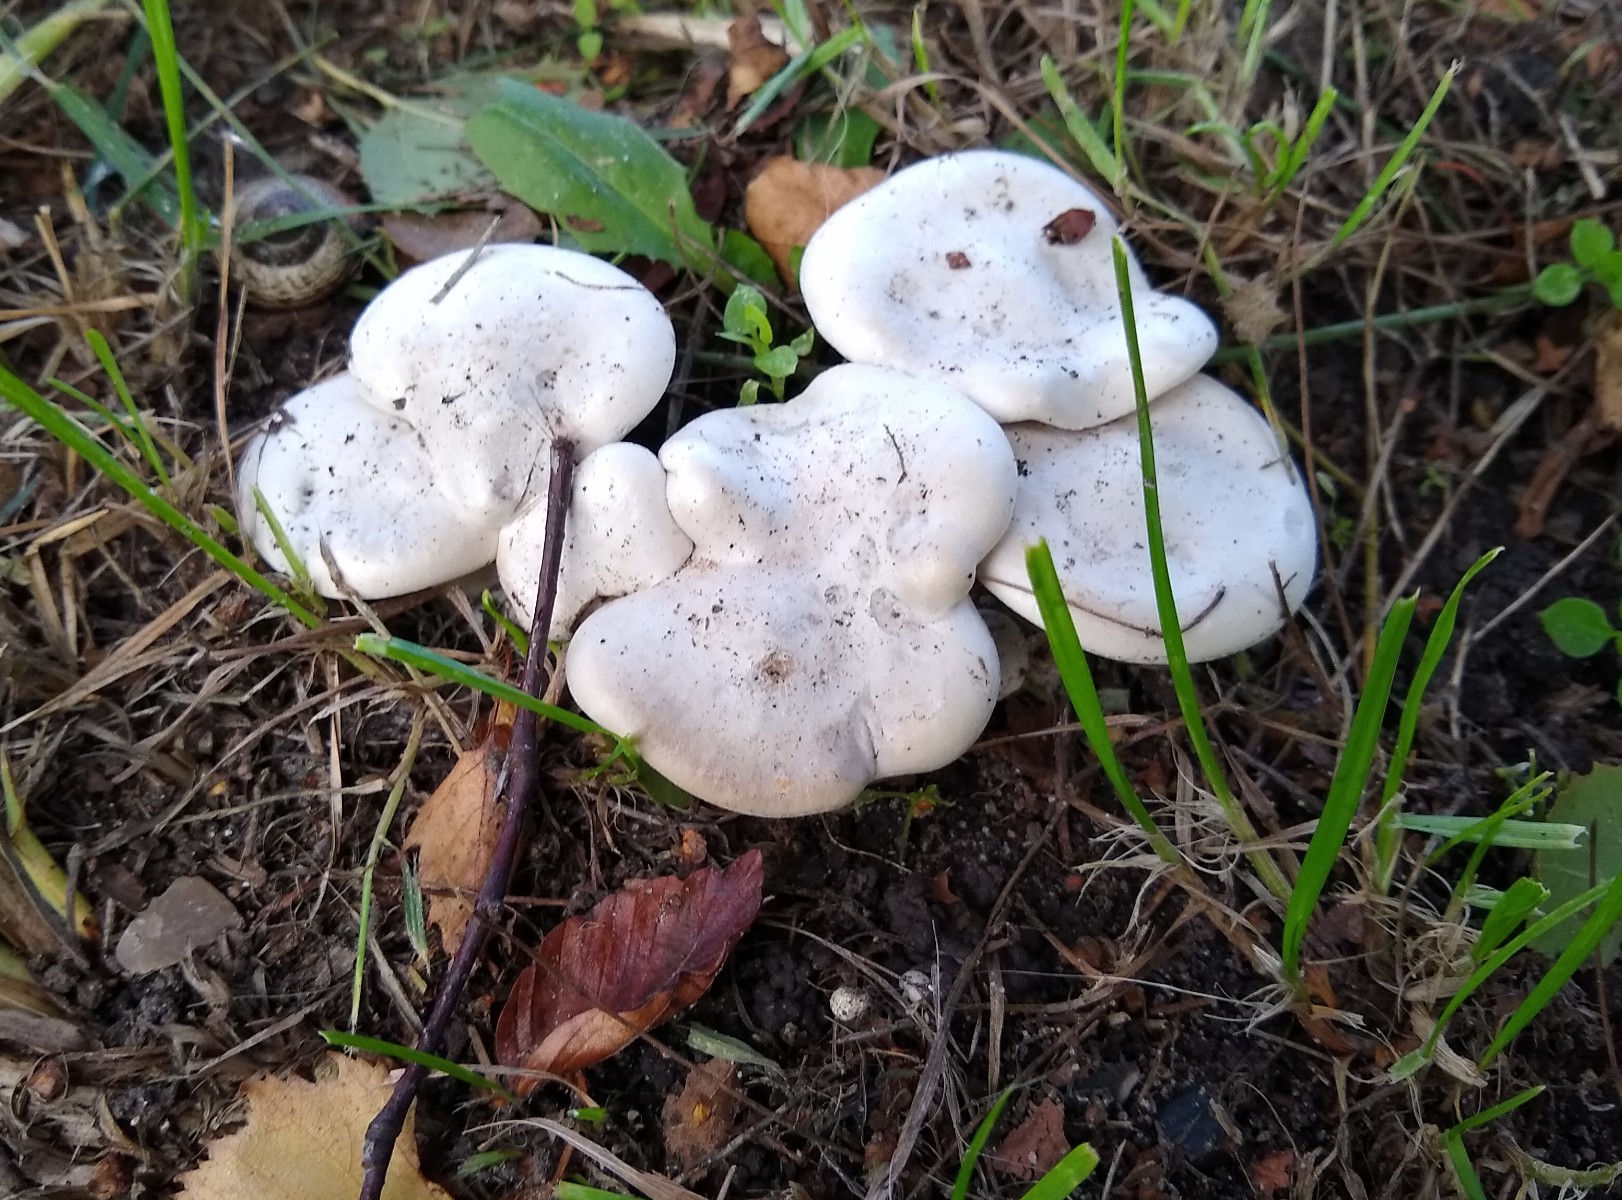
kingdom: Fungi
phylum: Basidiomycota
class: Agaricomycetes
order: Agaricales
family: Entolomataceae
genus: Clitopilus
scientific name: Clitopilus
